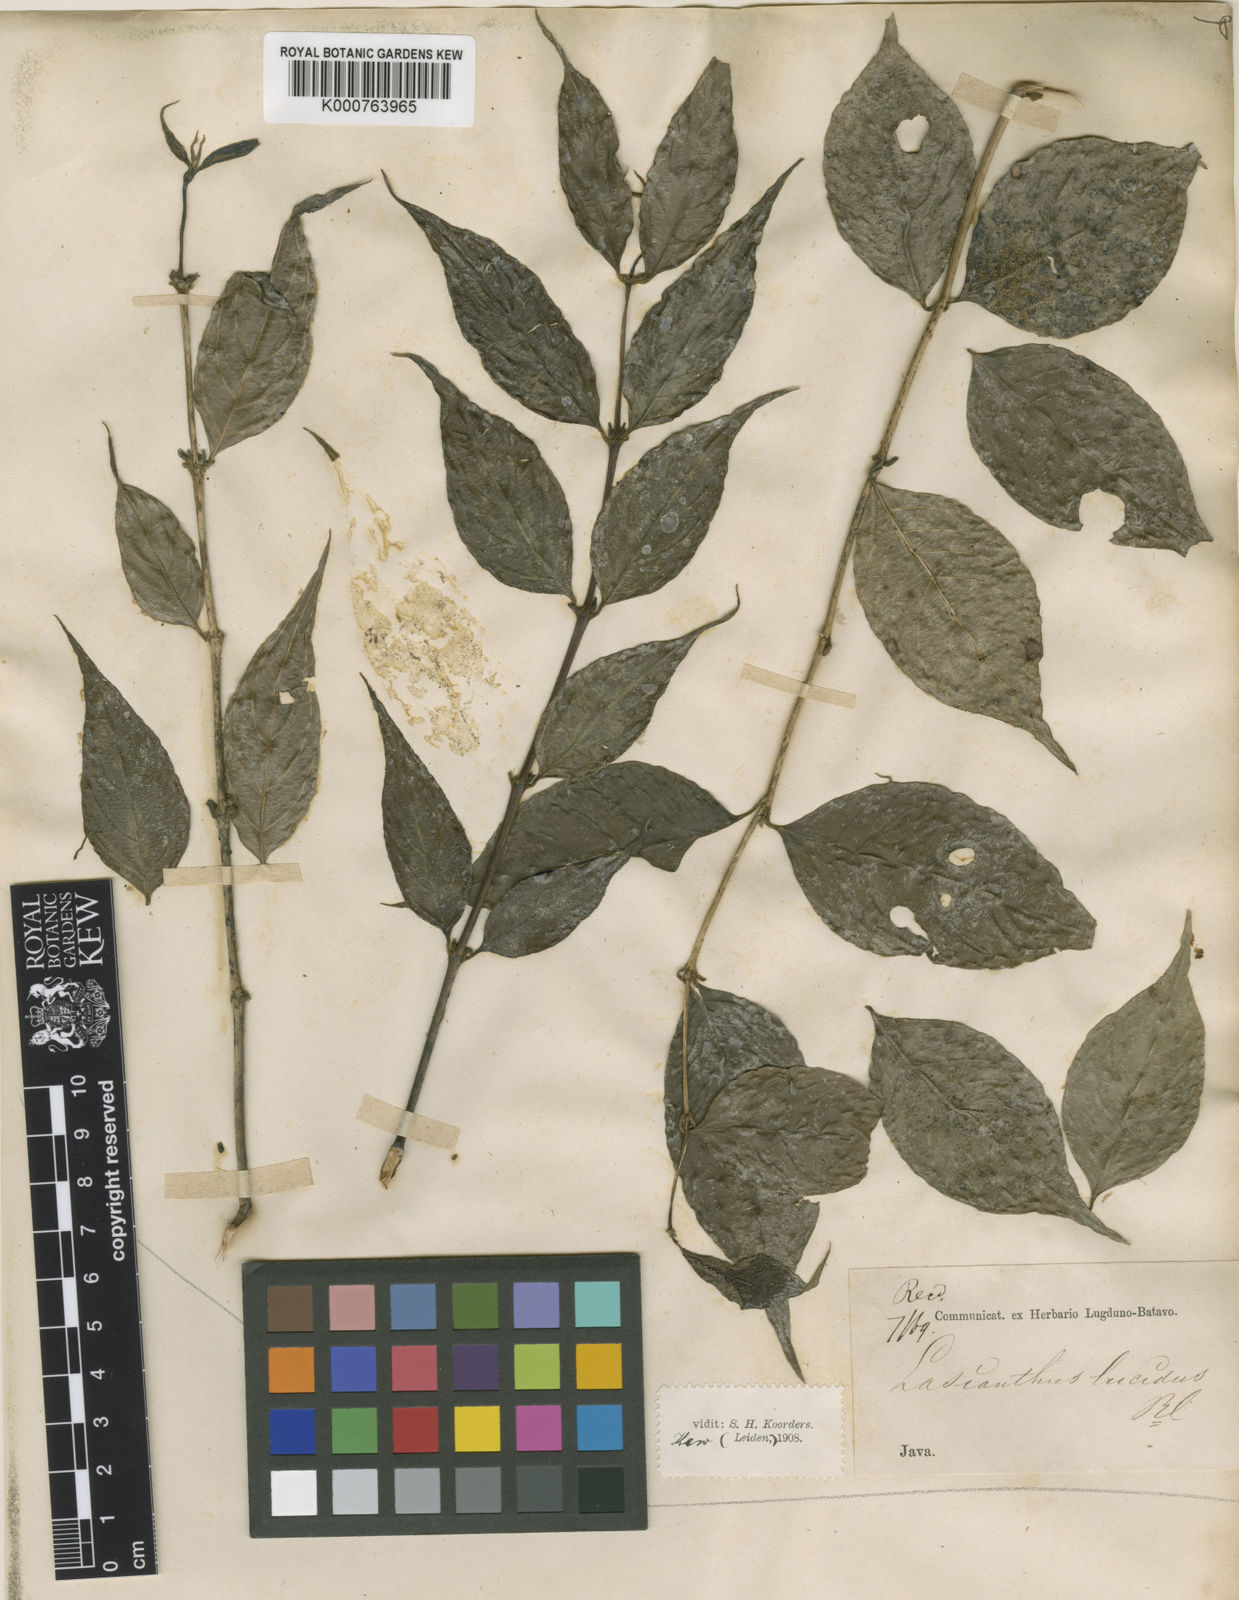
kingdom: Plantae
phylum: Tracheophyta
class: Magnoliopsida
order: Gentianales
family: Rubiaceae
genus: Lasianthus
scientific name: Lasianthus lucidus
